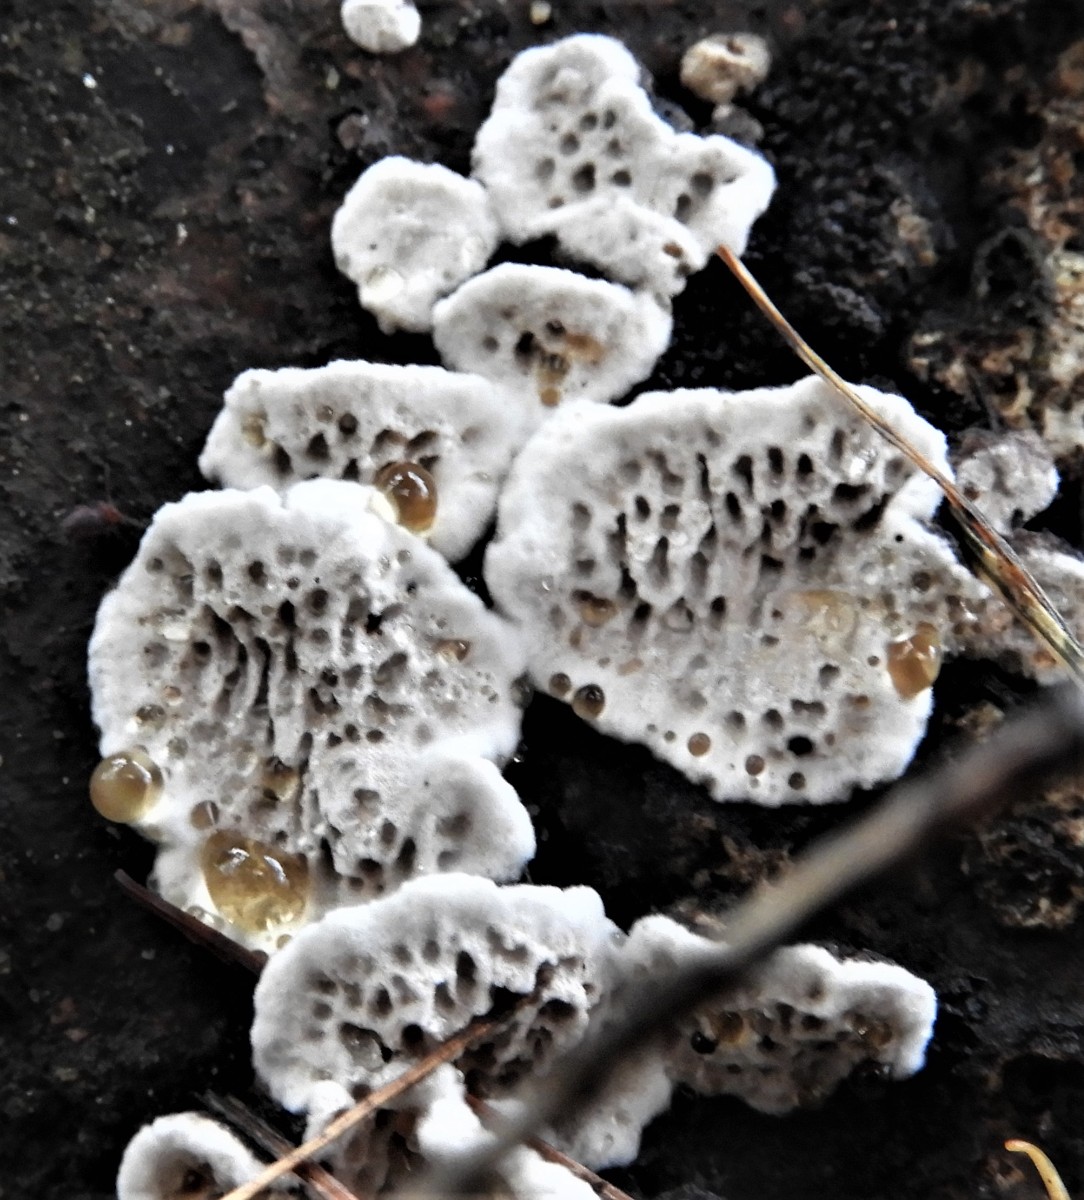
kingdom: Fungi
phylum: Basidiomycota
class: Agaricomycetes
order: Polyporales
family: Polyporaceae
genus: Podofomes
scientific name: Podofomes mollis
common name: blød begporesvamp
